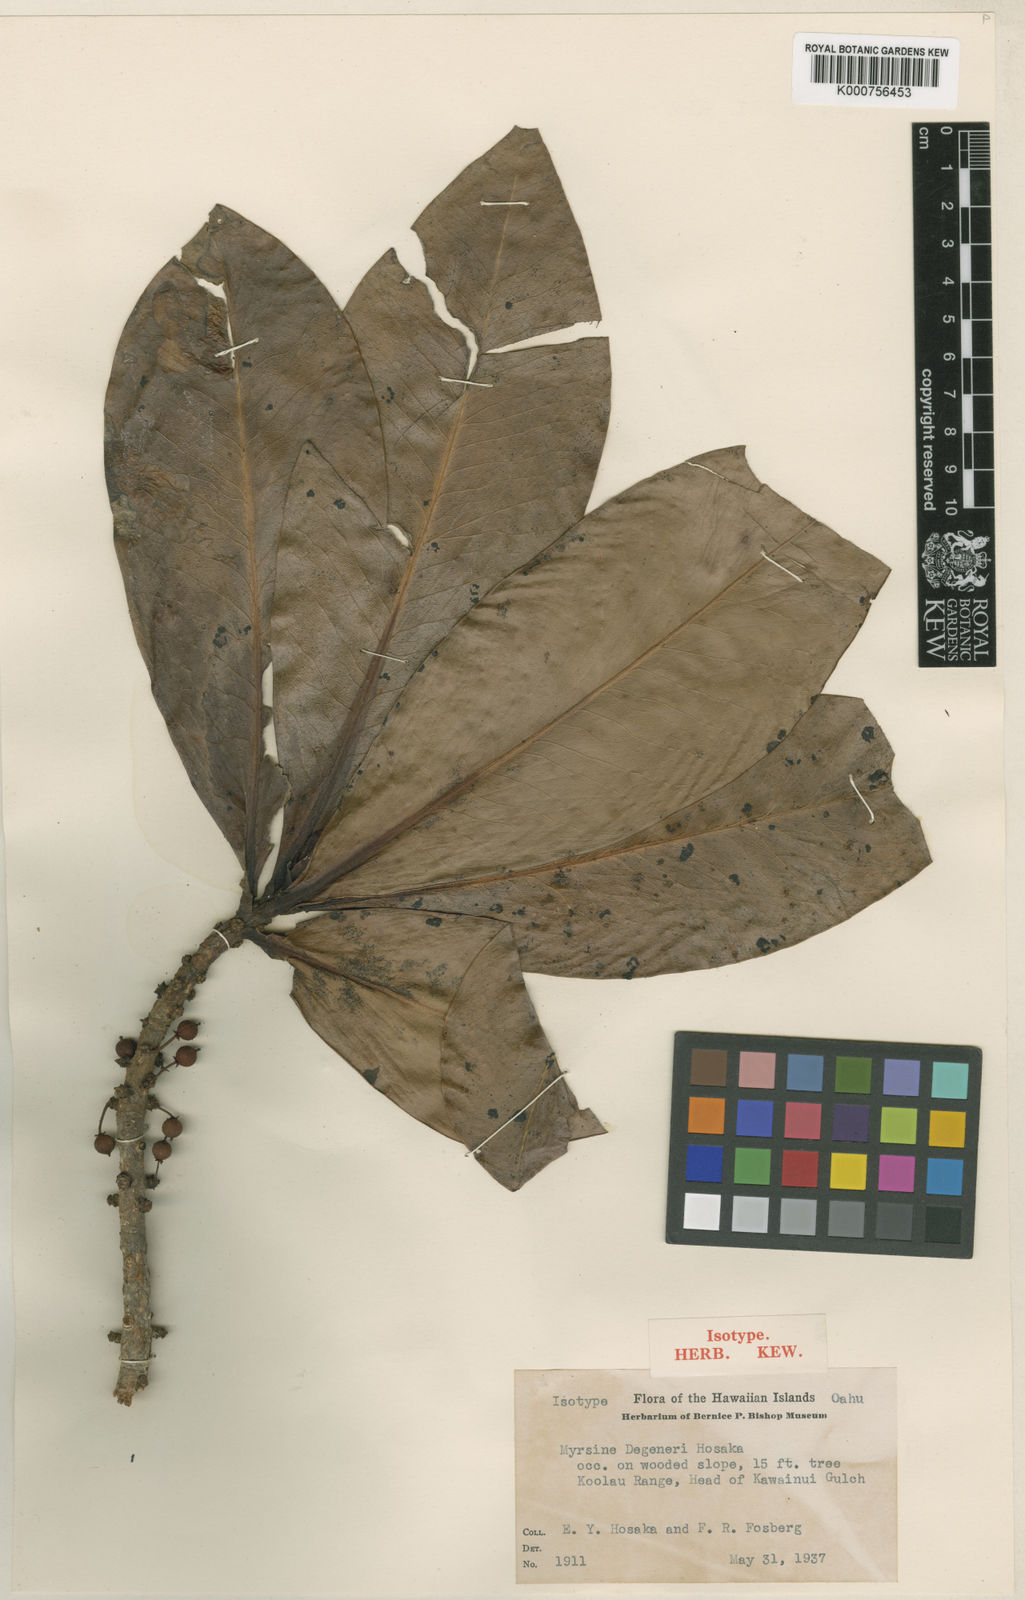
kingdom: Plantae
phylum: Tracheophyta
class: Magnoliopsida
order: Ericales
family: Primulaceae
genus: Myrsine
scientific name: Myrsine degeneri
